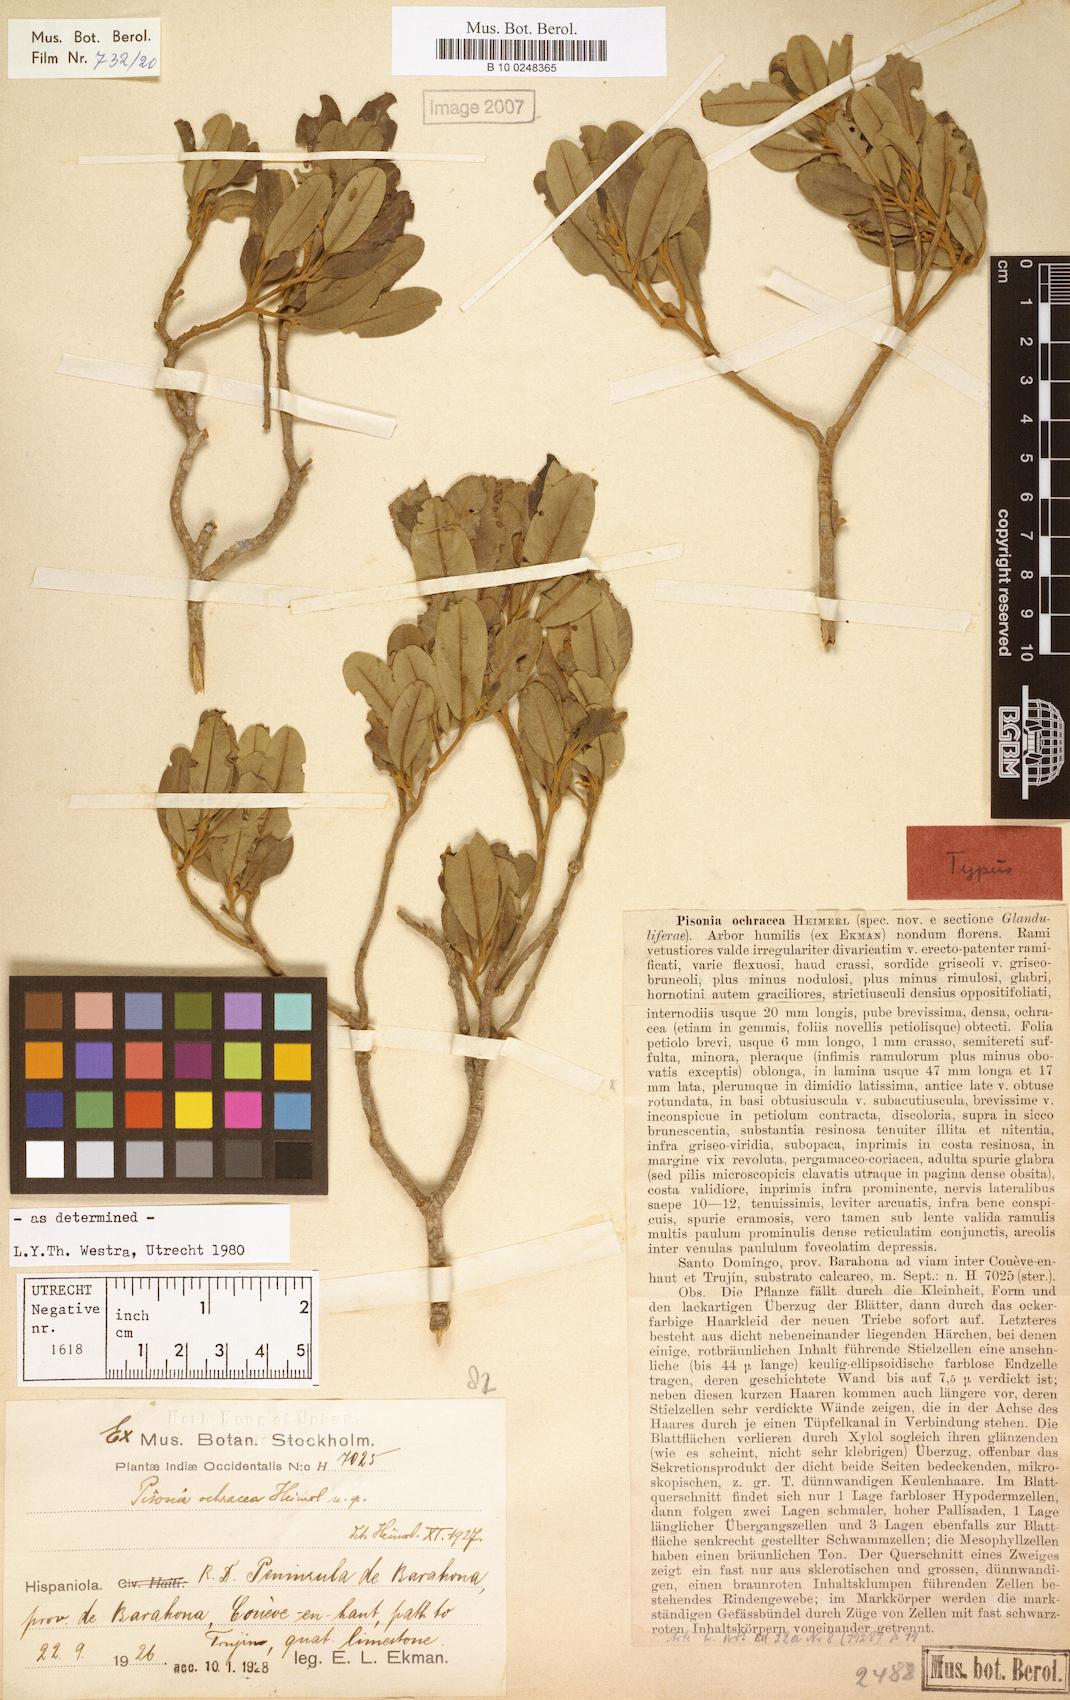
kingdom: Plantae
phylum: Tracheophyta
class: Magnoliopsida
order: Caryophyllales
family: Nyctaginaceae
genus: Pisonia
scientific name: Pisonia ochracea
